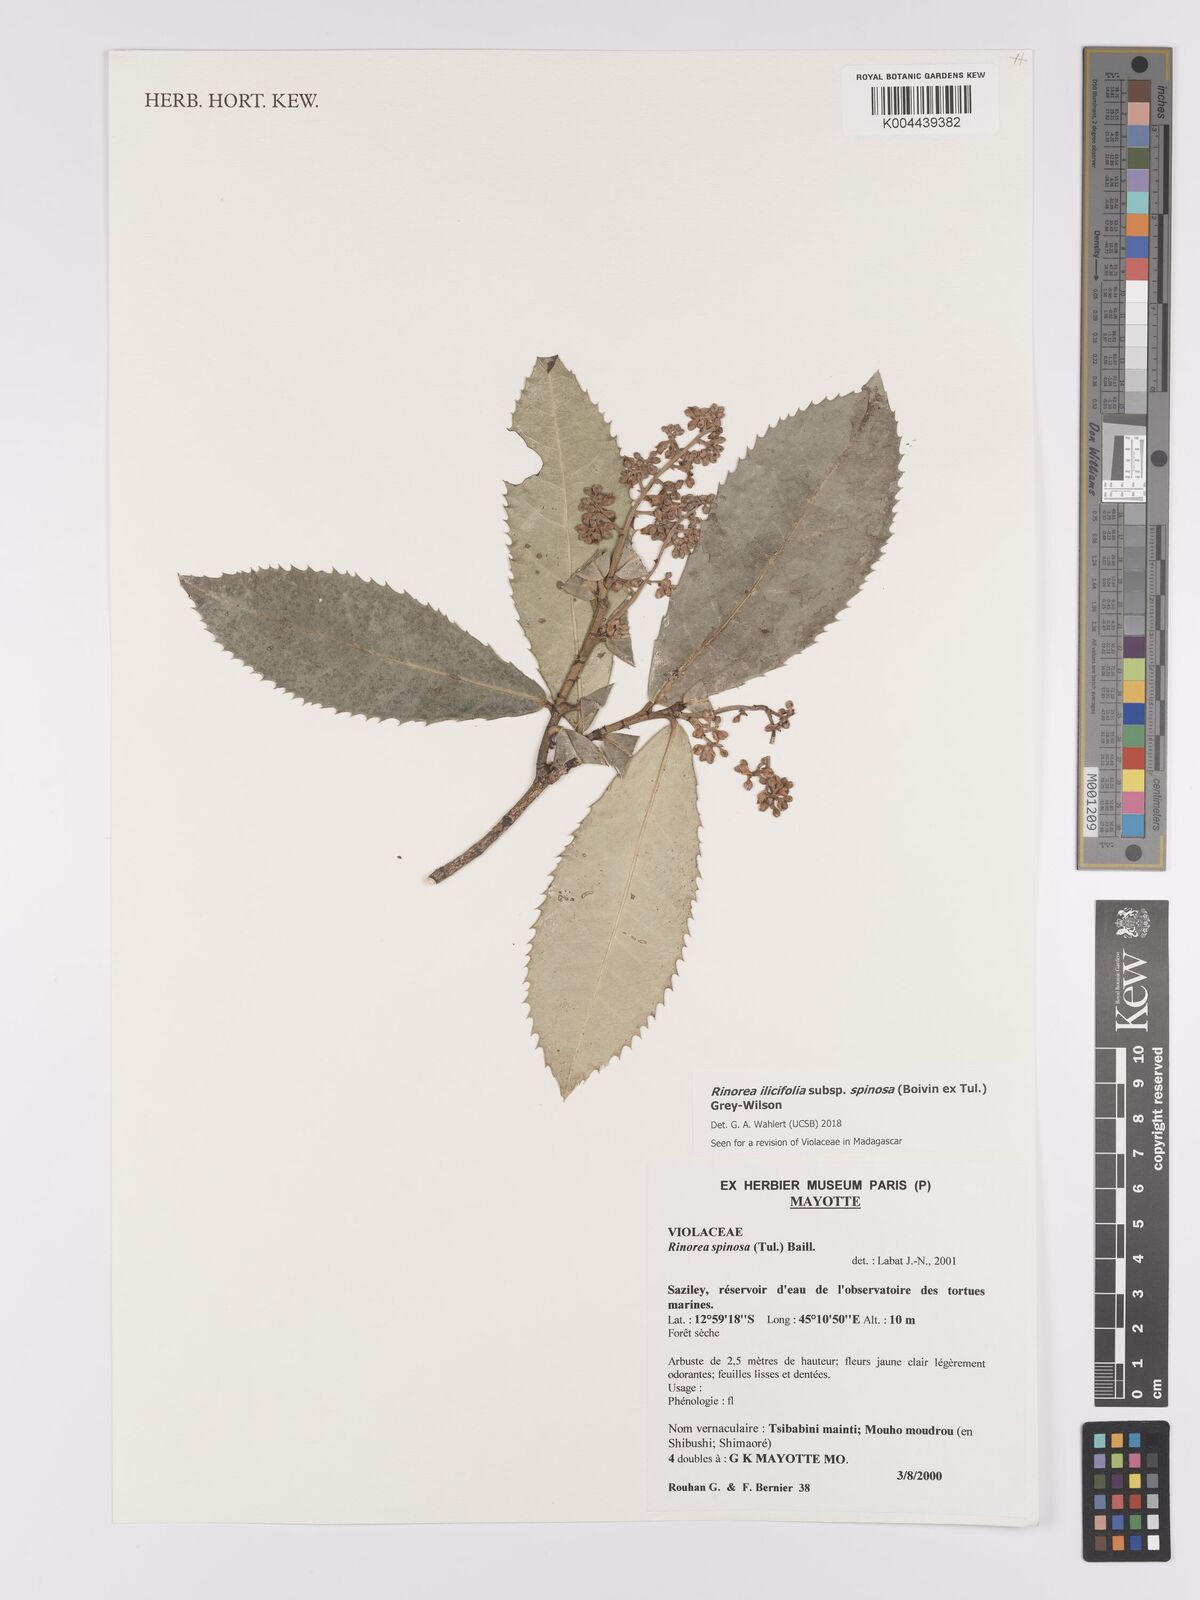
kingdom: Plantae
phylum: Tracheophyta
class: Magnoliopsida
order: Malpighiales
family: Violaceae
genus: Rinorea
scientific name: Rinorea spinosa
